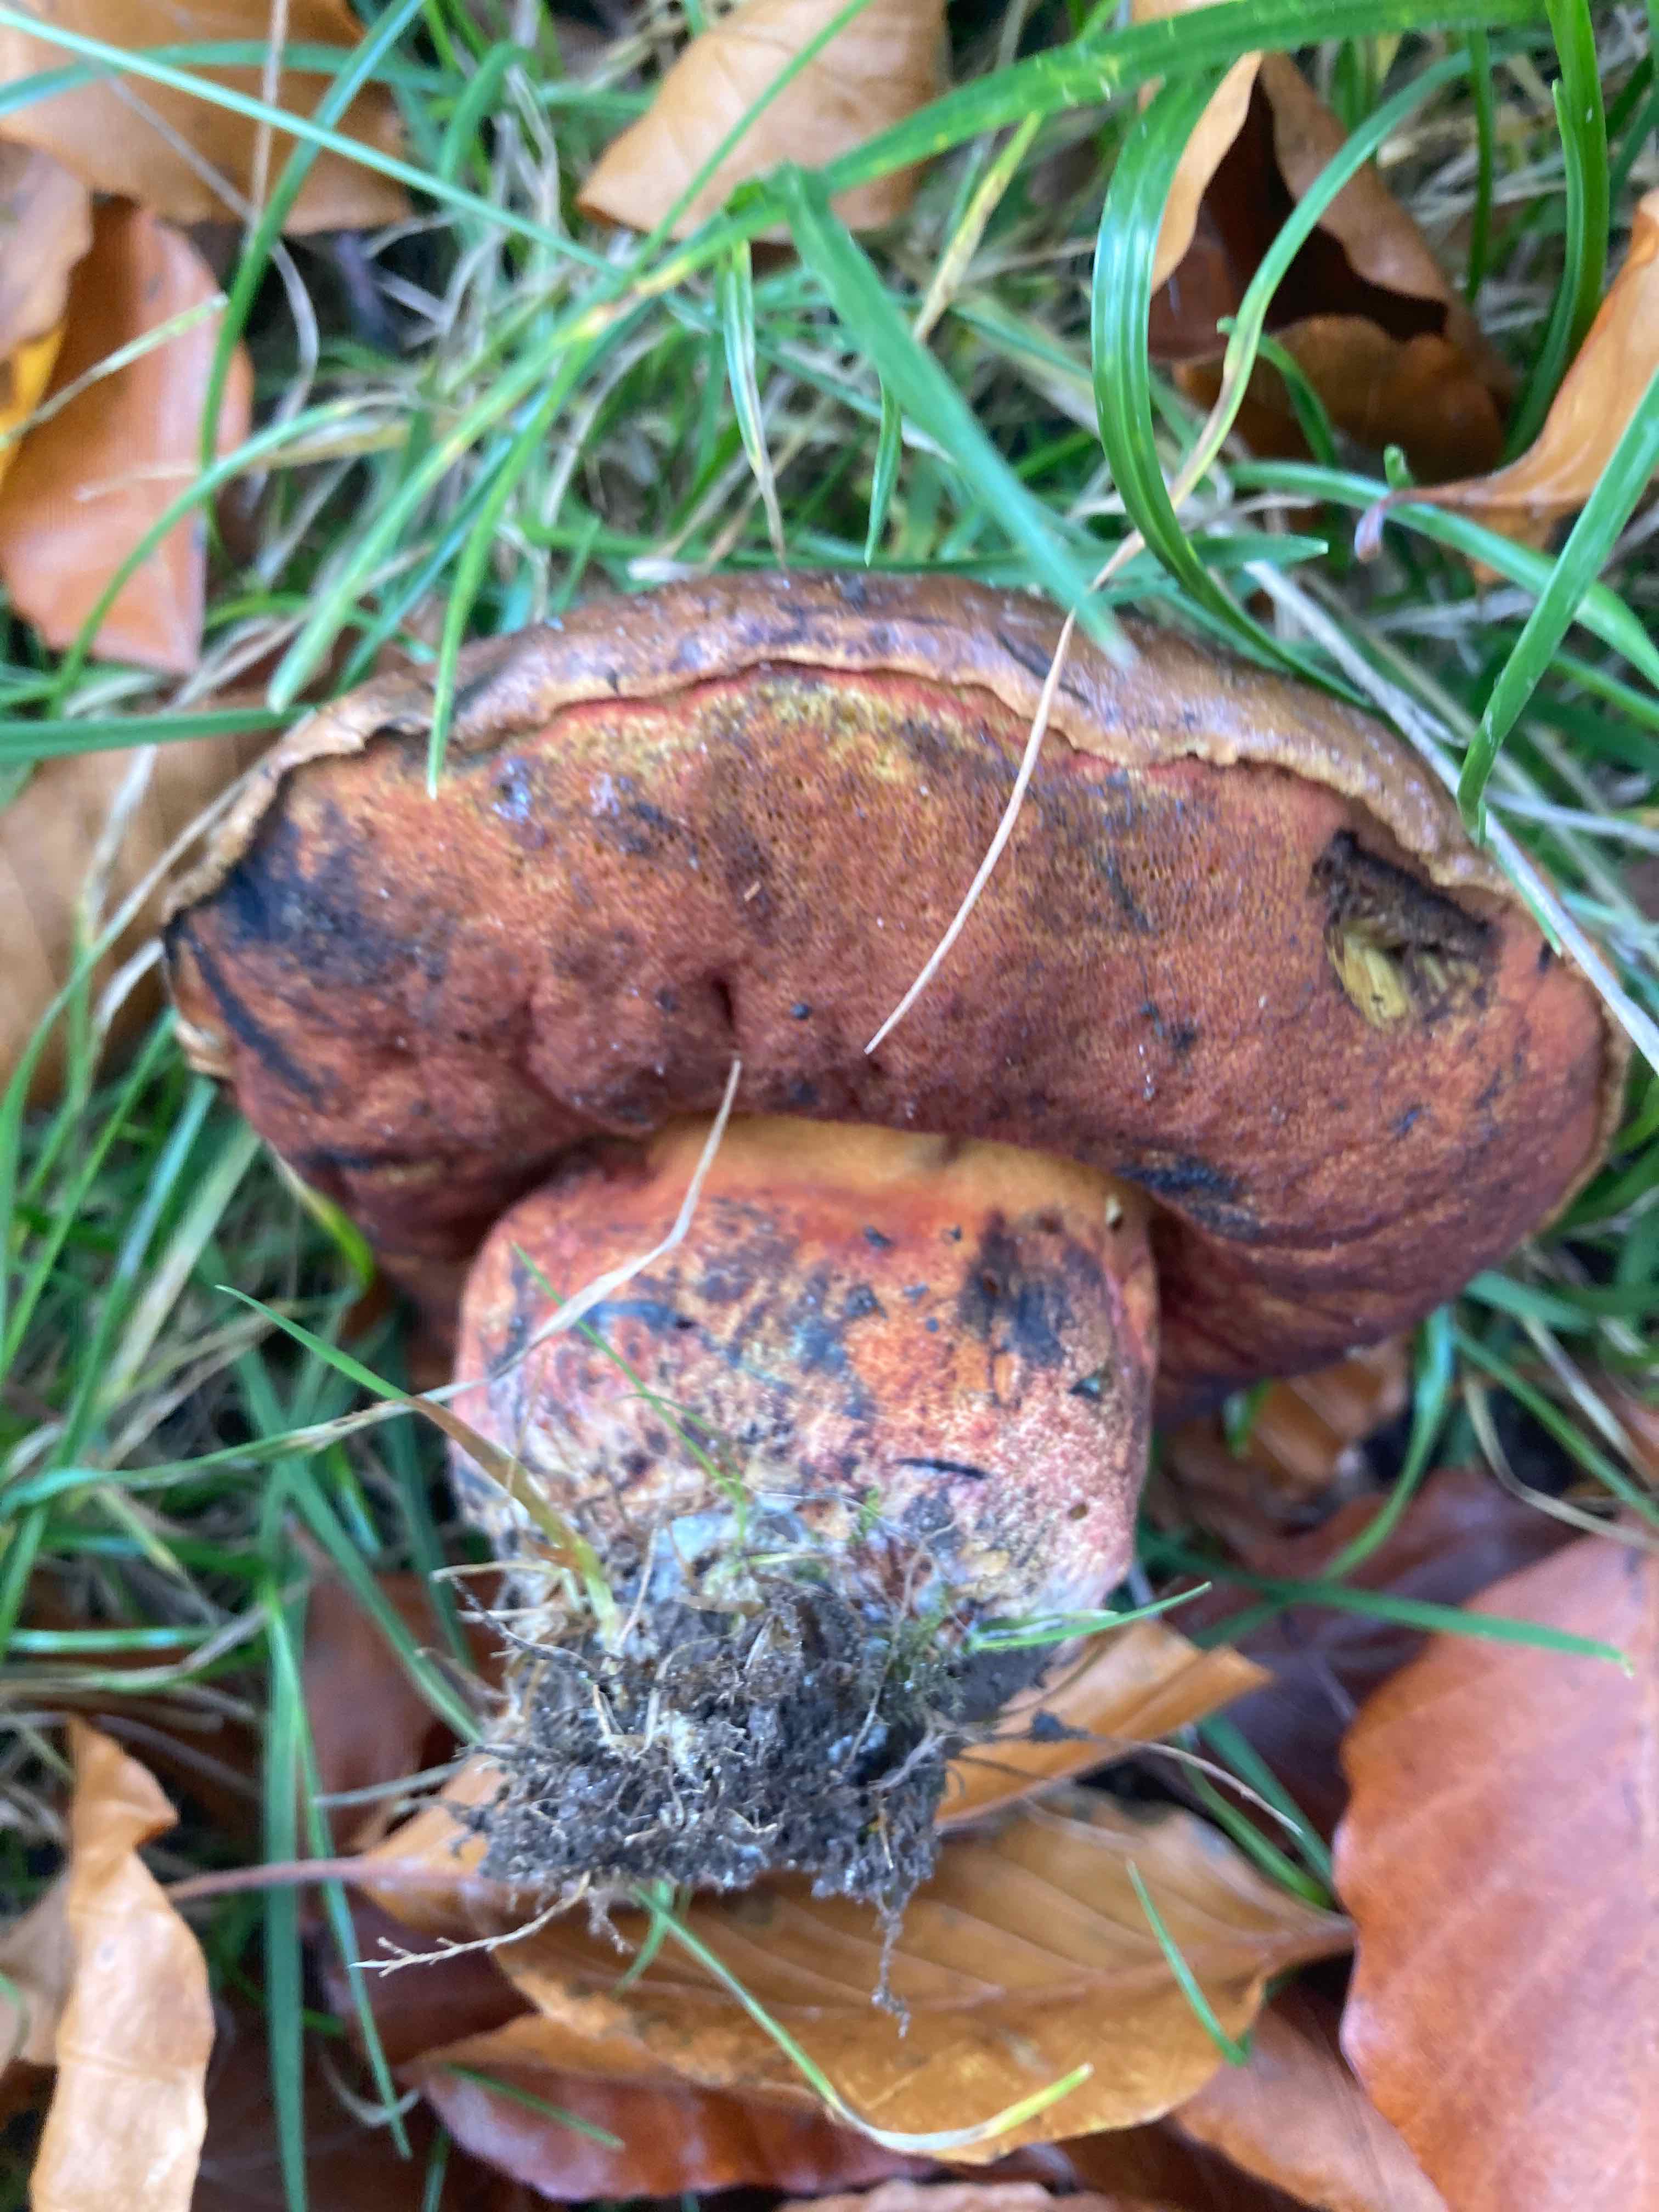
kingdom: Fungi
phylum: Basidiomycota
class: Agaricomycetes
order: Boletales
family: Boletaceae
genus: Neoboletus
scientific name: Neoboletus xanthopus
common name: finprikket indigorørhat
